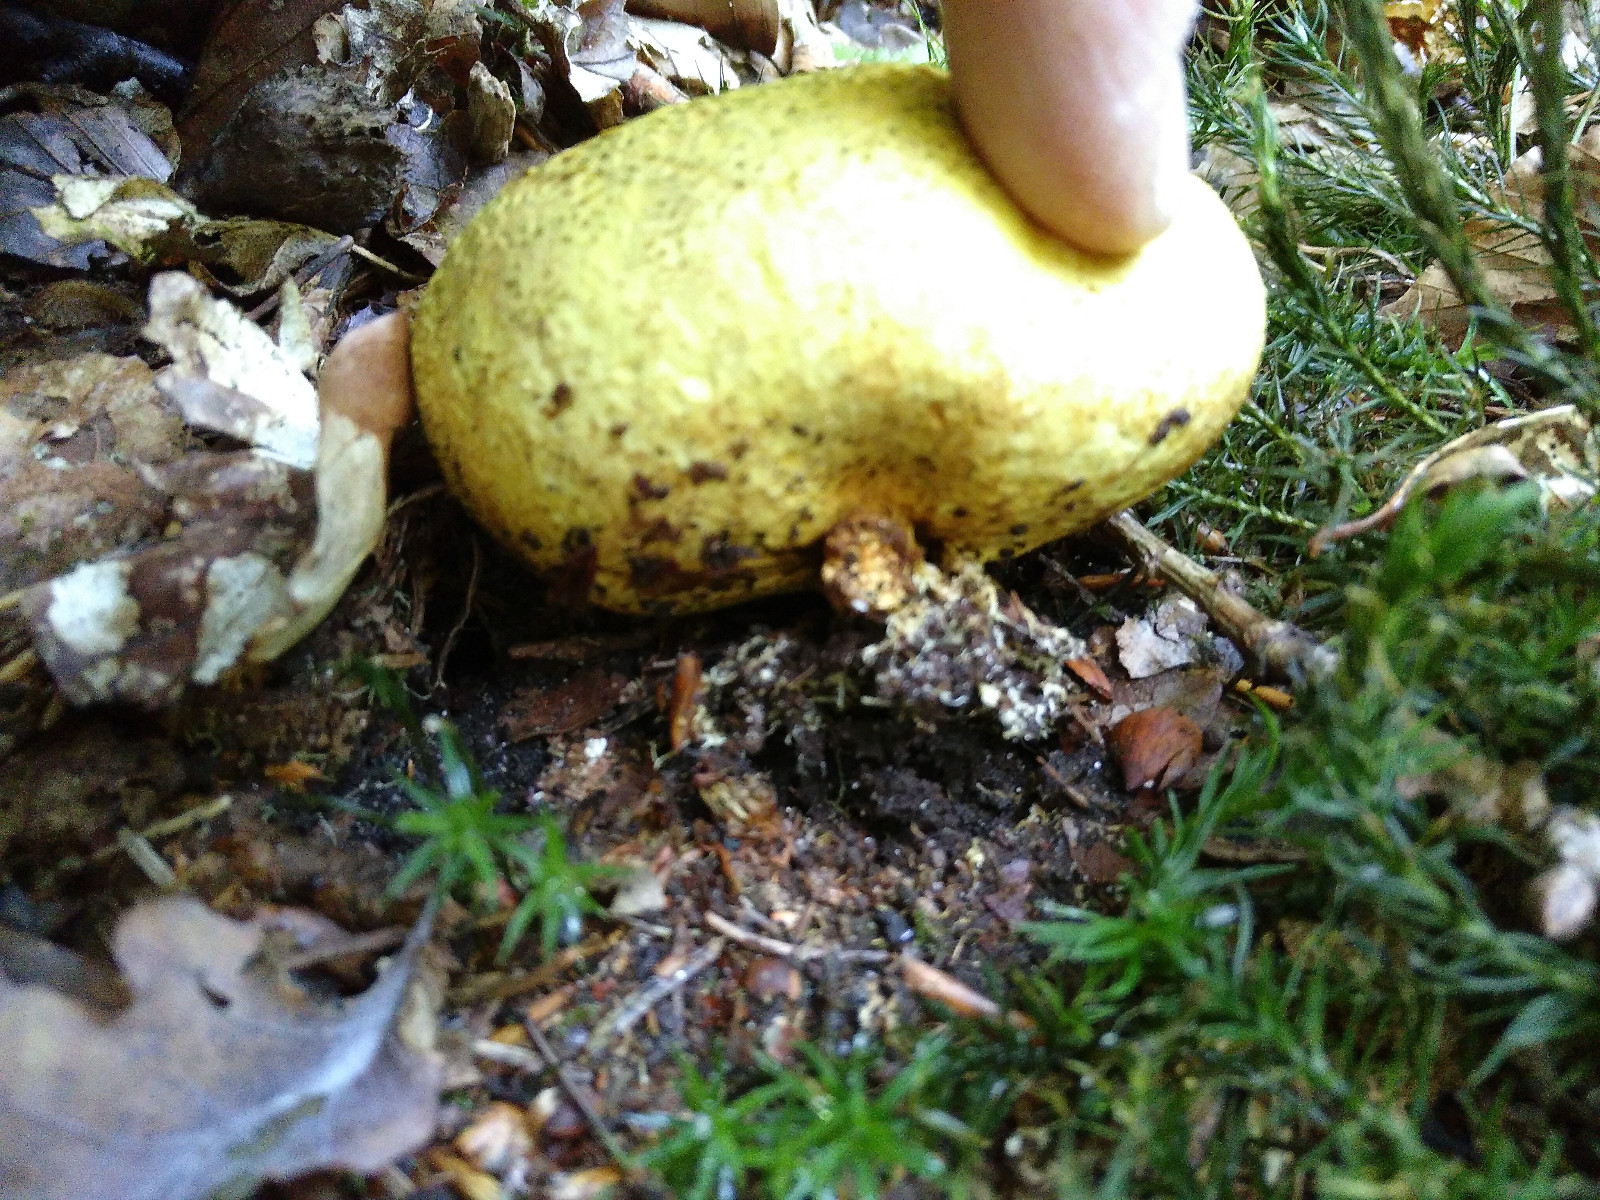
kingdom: Fungi
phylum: Basidiomycota
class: Agaricomycetes
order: Boletales
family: Sclerodermataceae
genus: Scleroderma
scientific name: Scleroderma citrinum
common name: almindelig bruskbold
